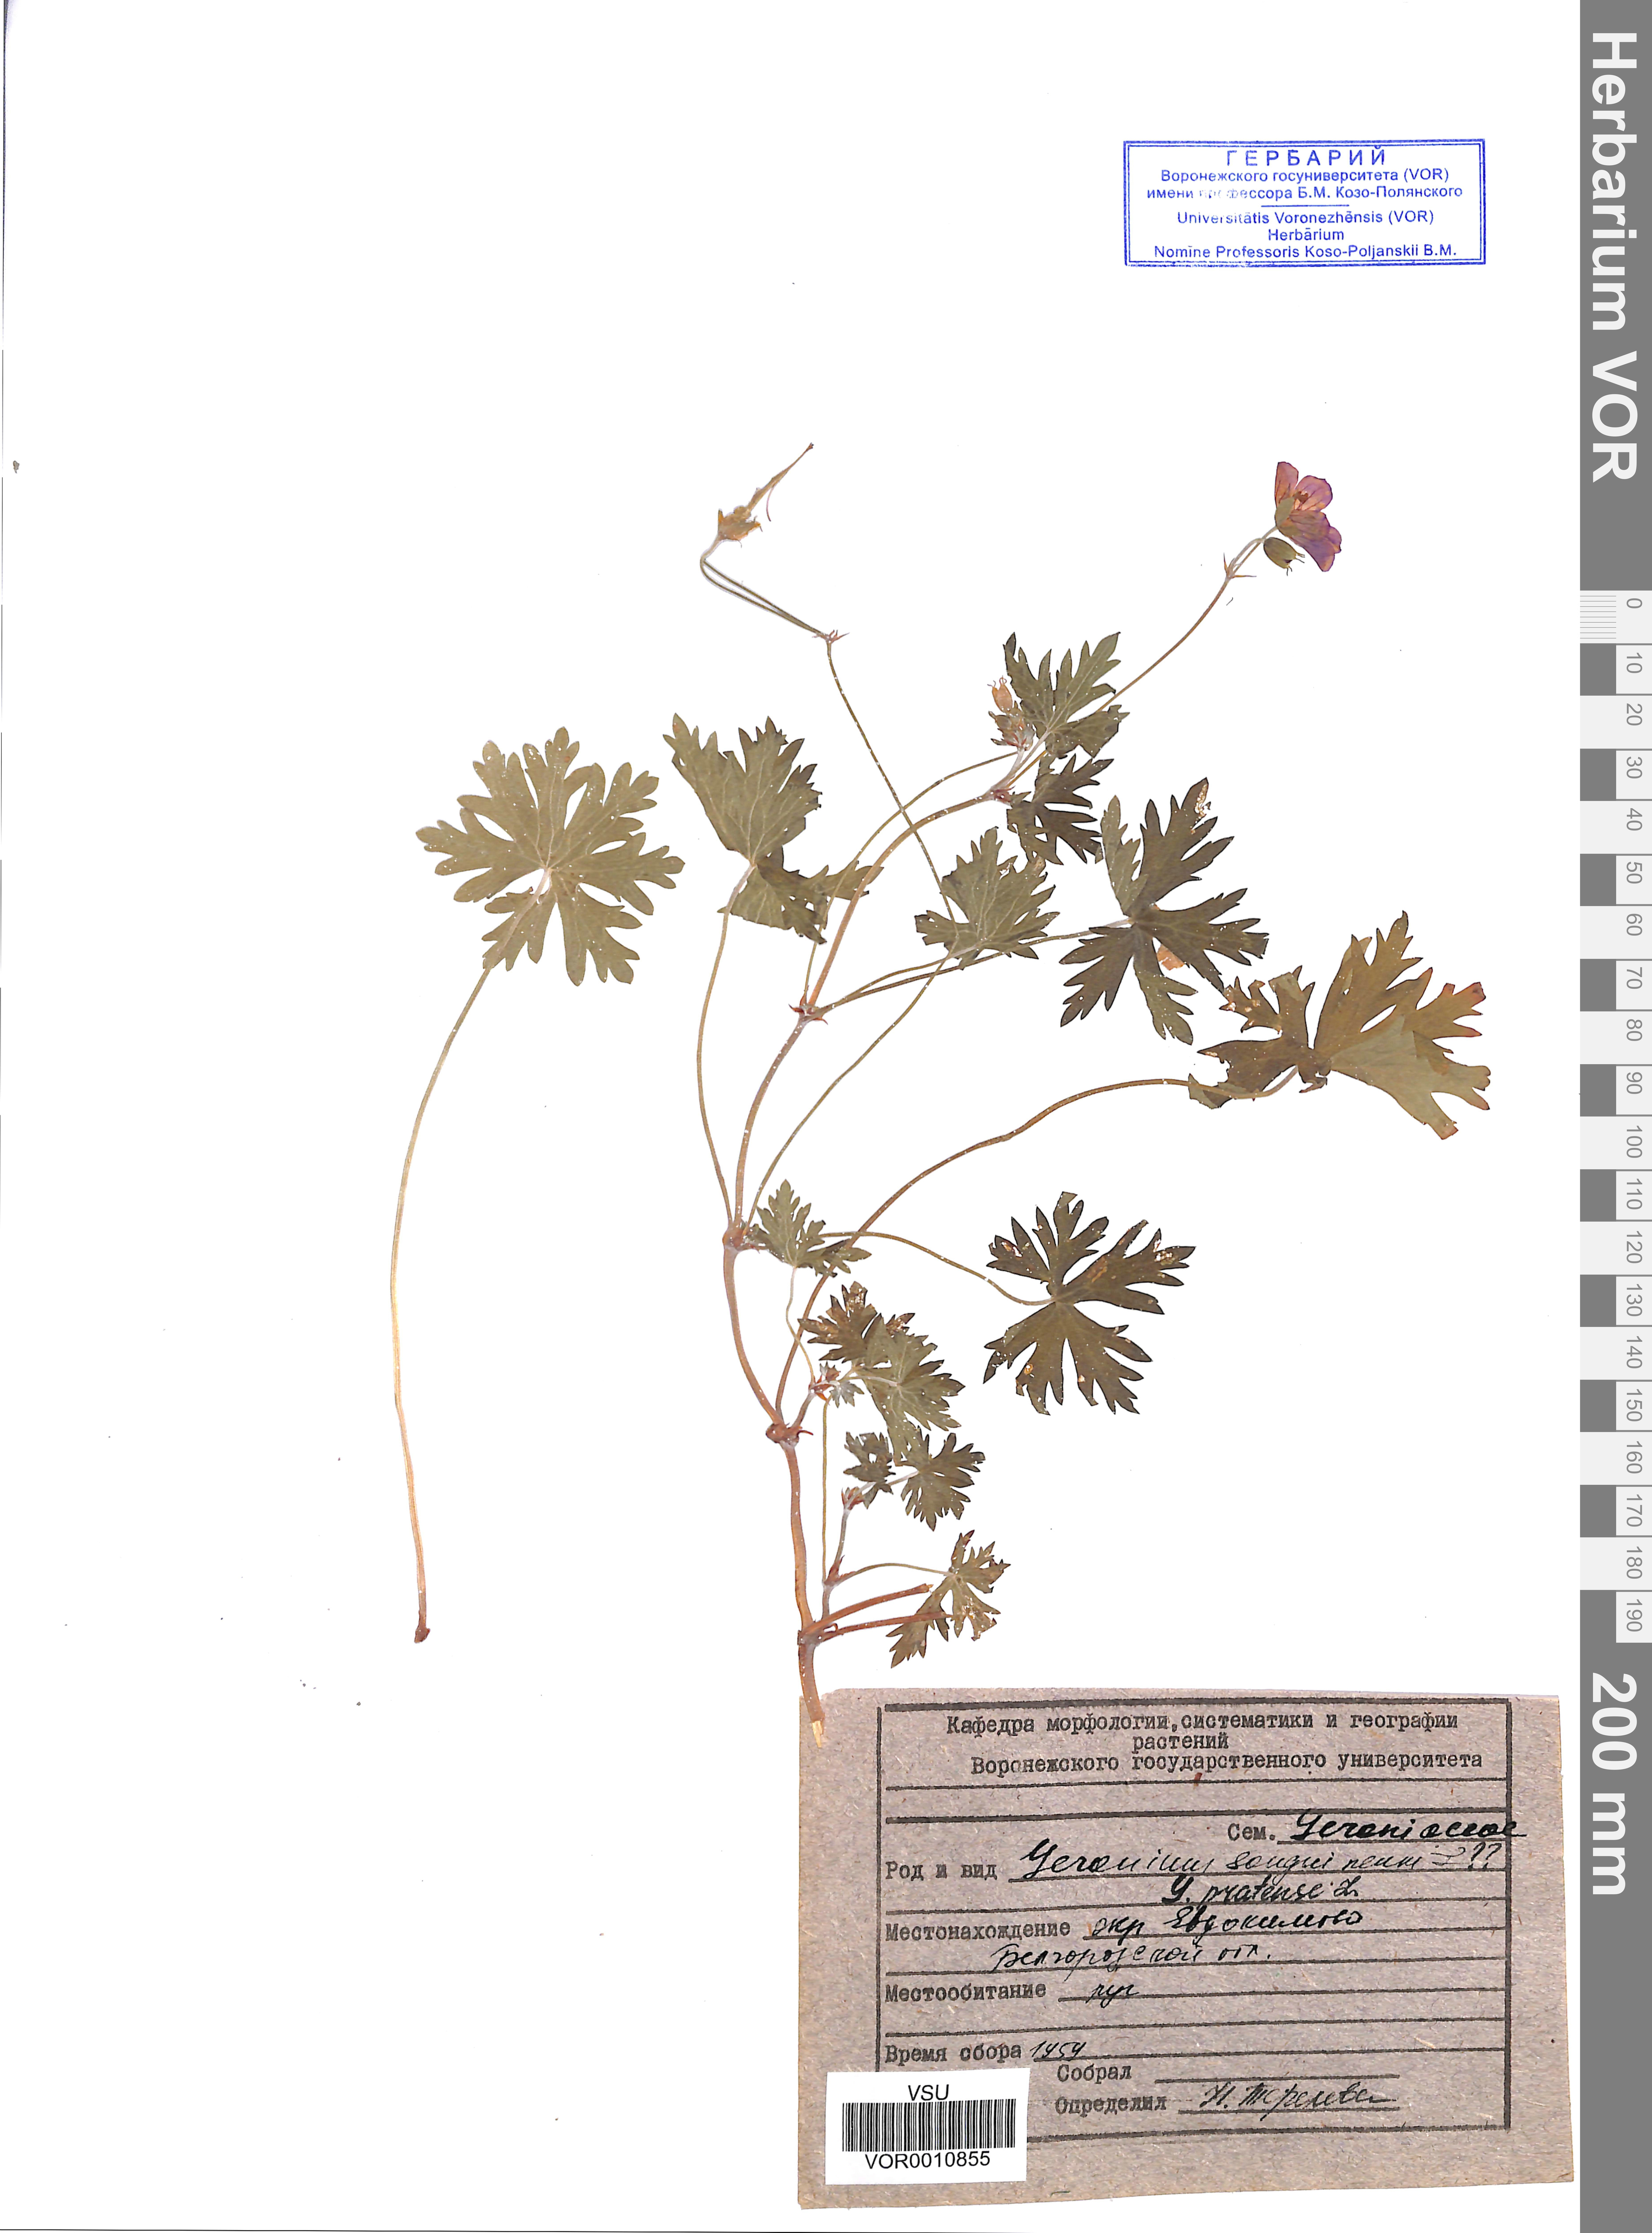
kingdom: Plantae
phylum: Tracheophyta
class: Magnoliopsida
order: Geraniales
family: Geraniaceae
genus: Geranium
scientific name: Geranium pratense
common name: Meadow crane's-bill
